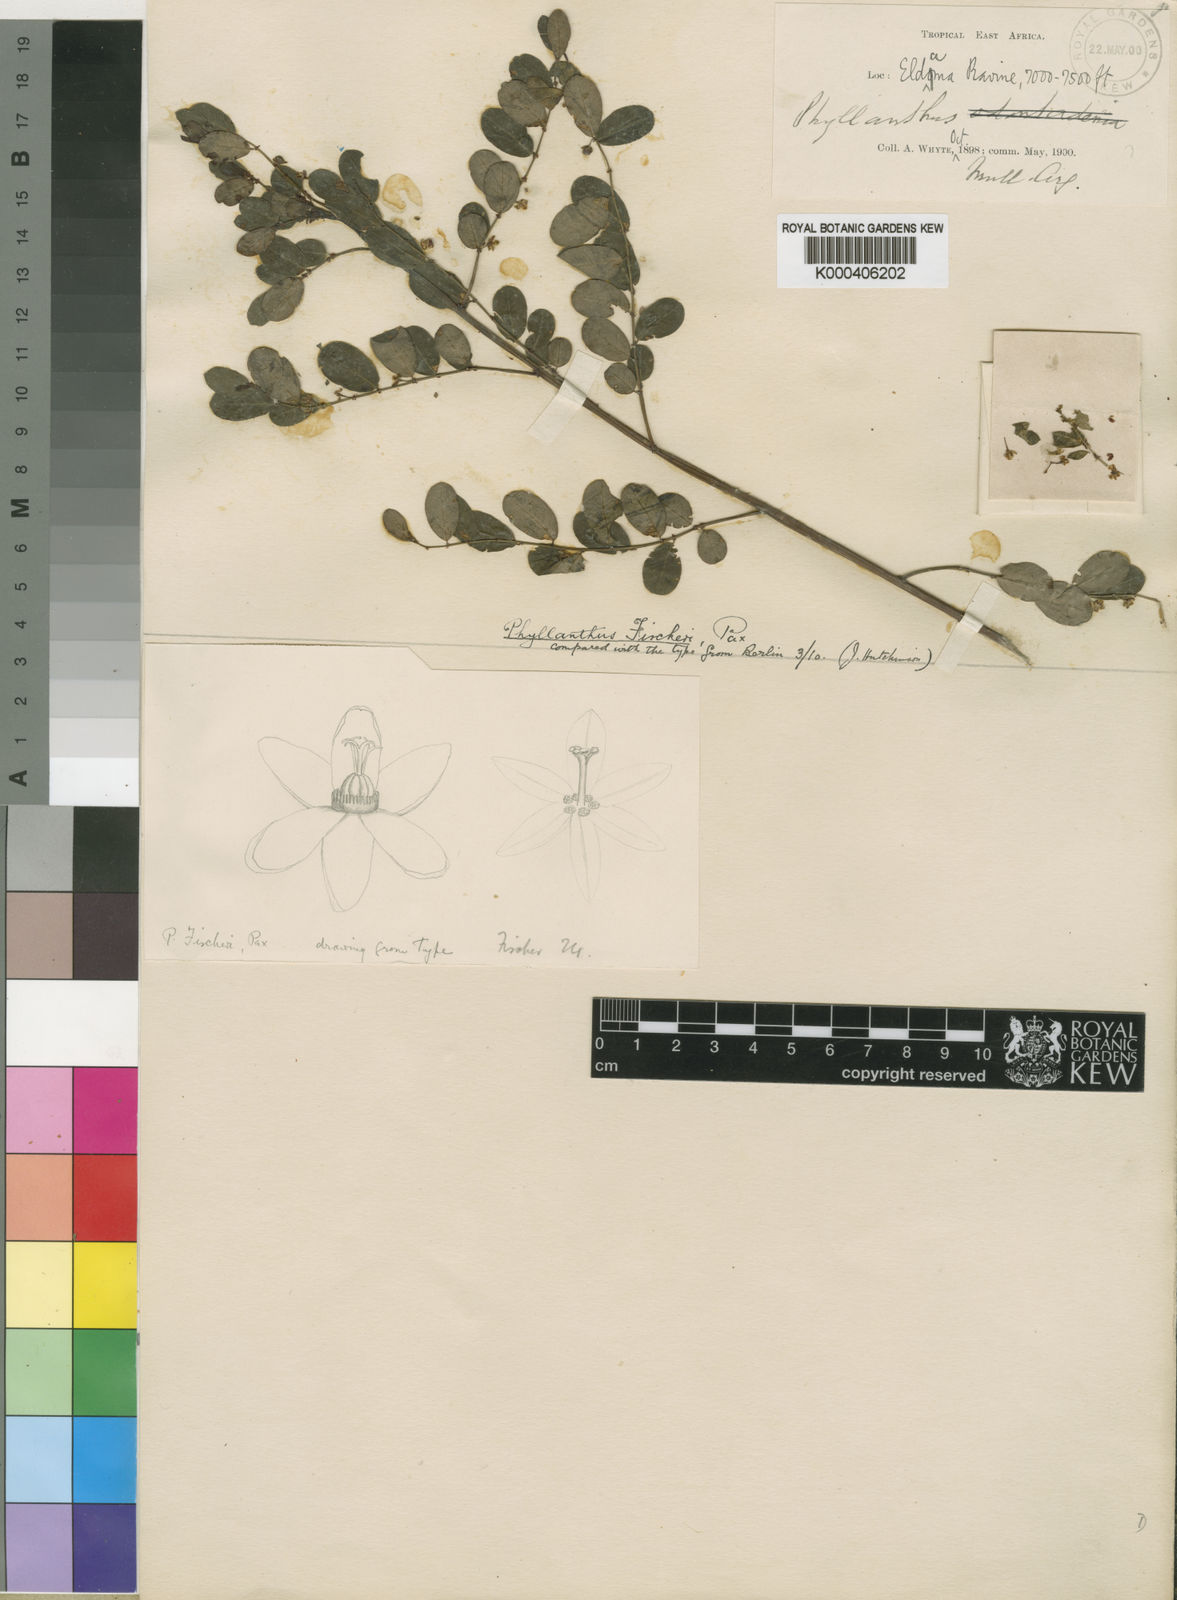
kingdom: Plantae
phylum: Tracheophyta
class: Magnoliopsida
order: Malpighiales
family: Phyllanthaceae
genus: Phyllanthus
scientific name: Phyllanthus fischeri
